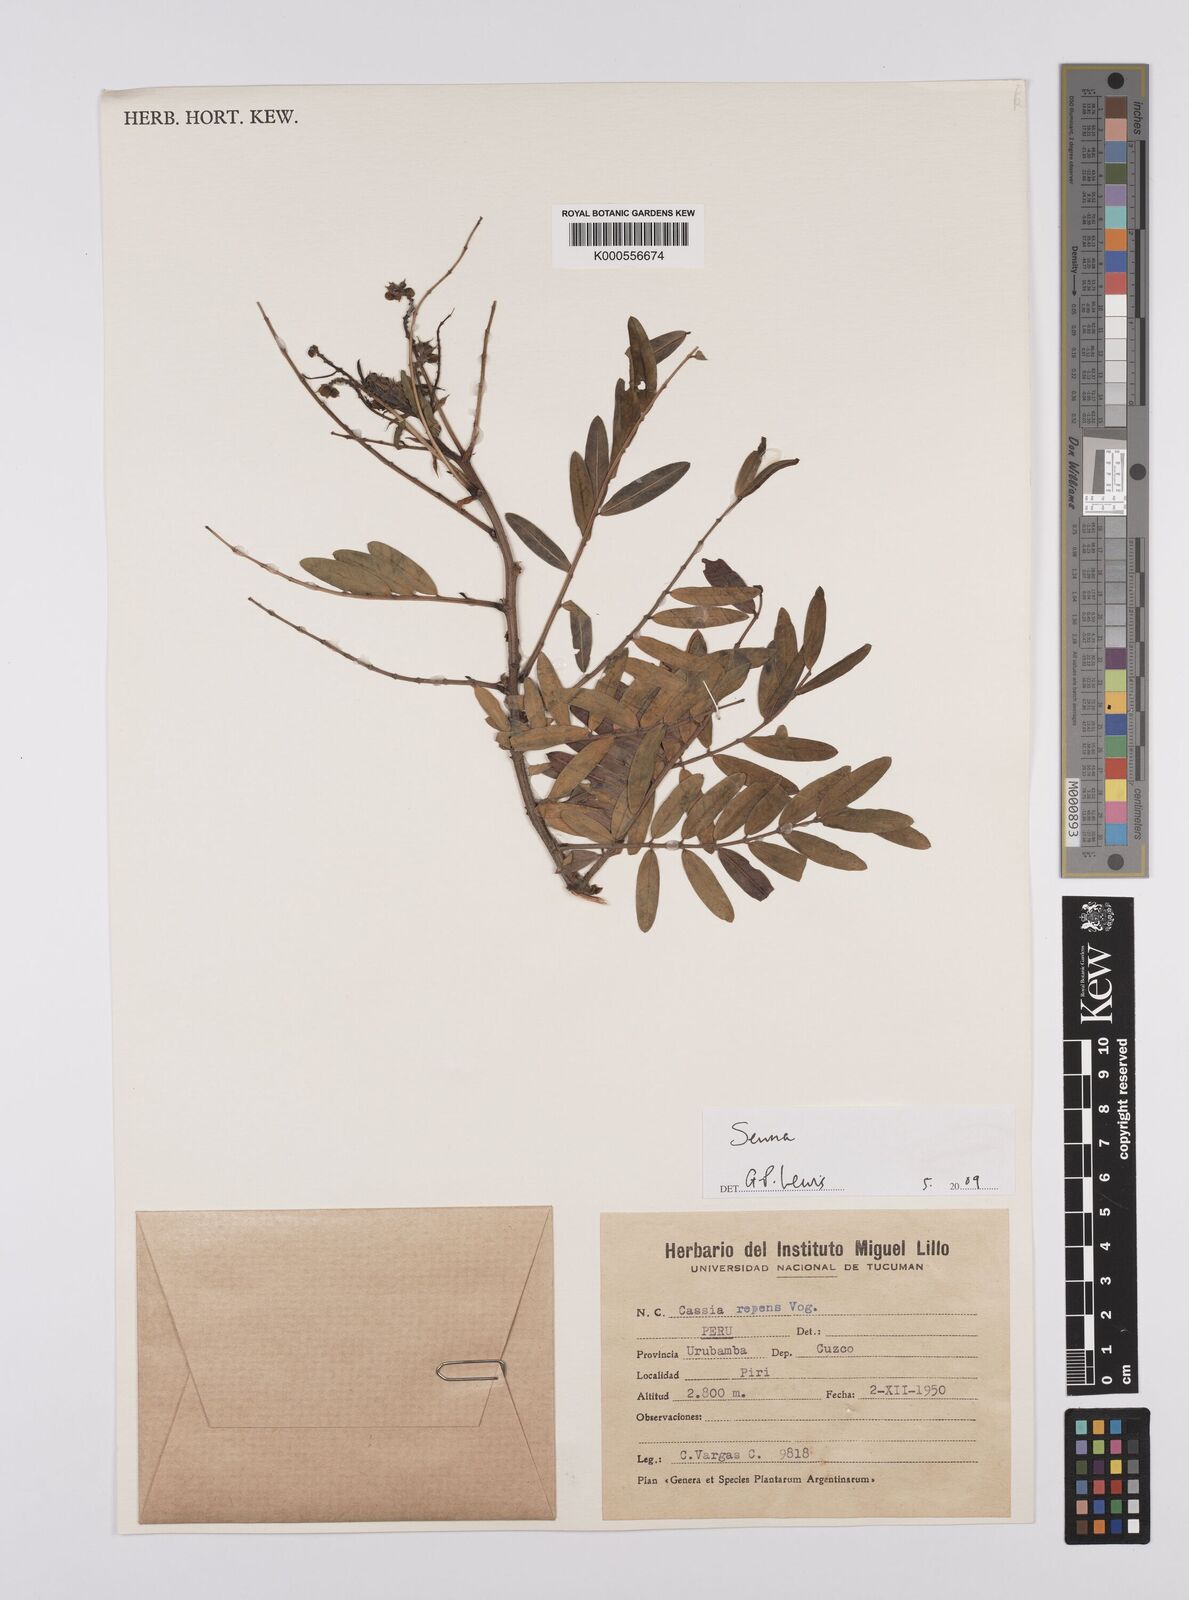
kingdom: Plantae
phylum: Tracheophyta
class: Magnoliopsida
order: Fabales
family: Fabaceae
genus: Senna
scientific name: Senna
